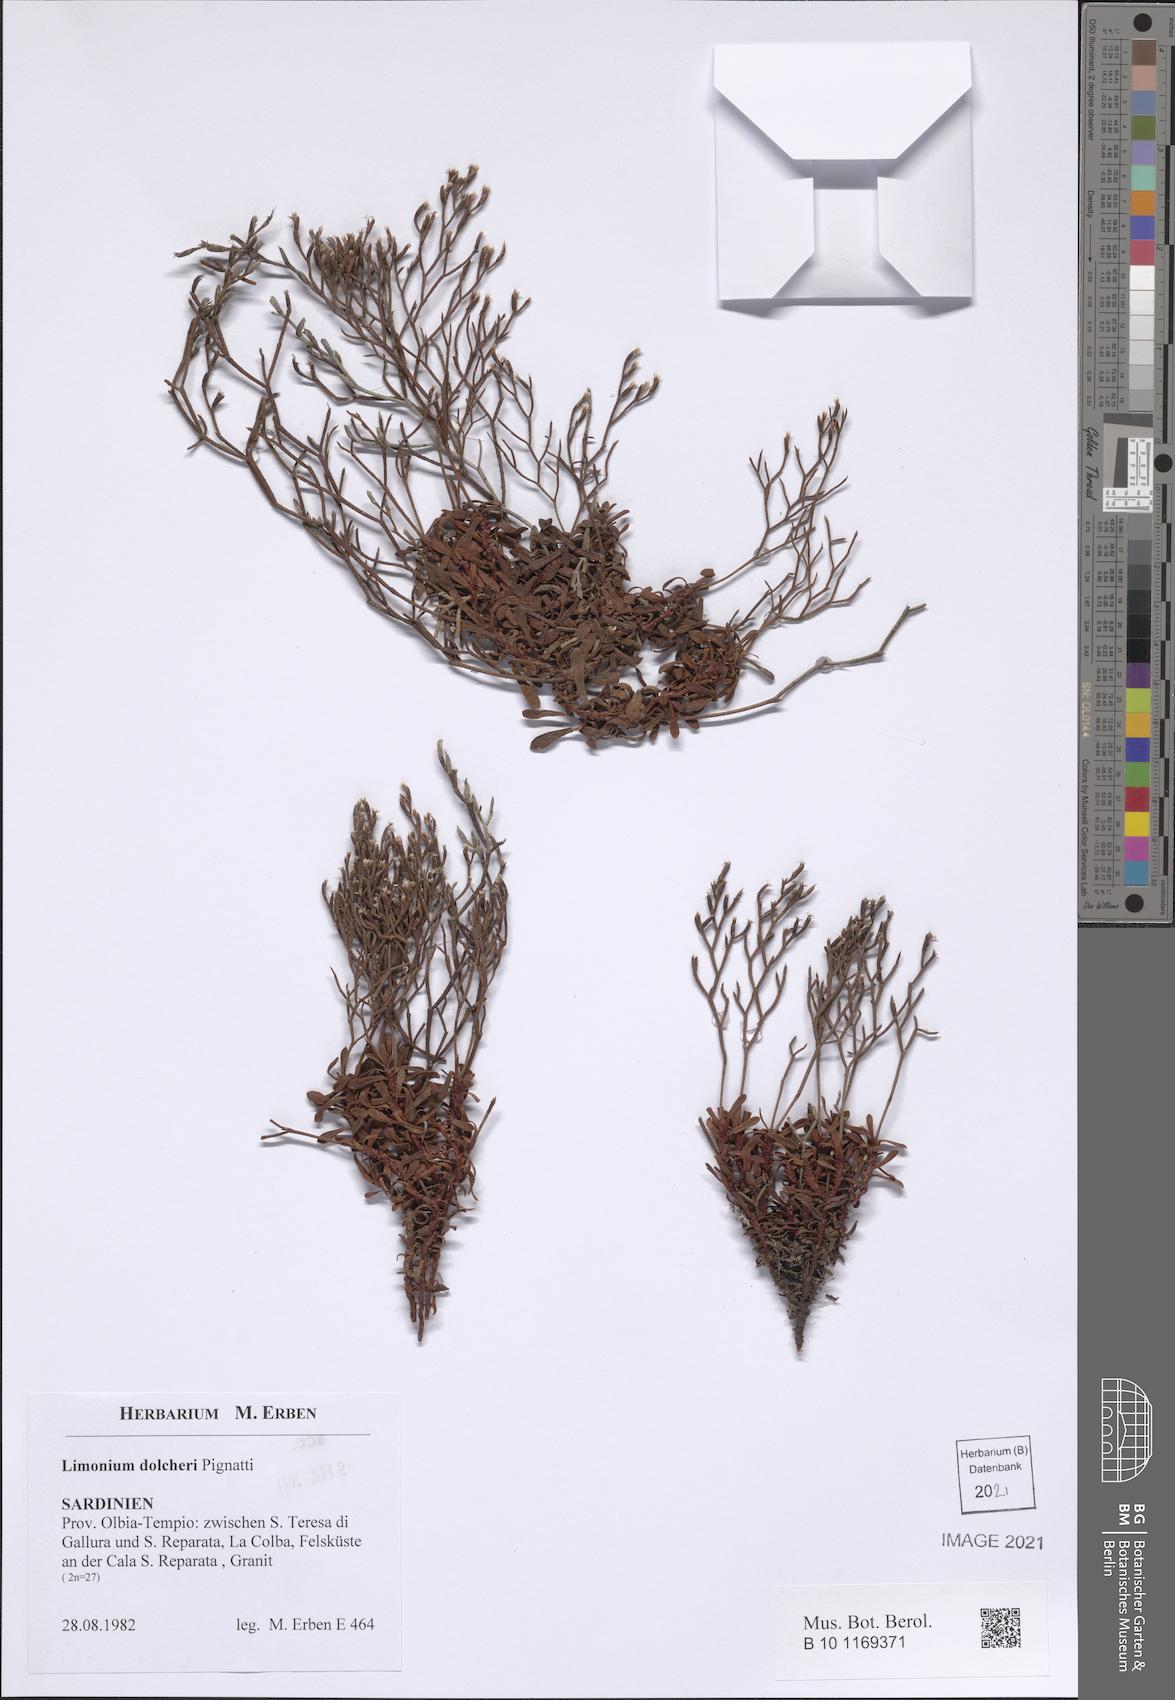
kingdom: Plantae
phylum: Tracheophyta
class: Magnoliopsida
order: Caryophyllales
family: Plumbaginaceae
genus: Limonium
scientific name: Limonium dolcheri
